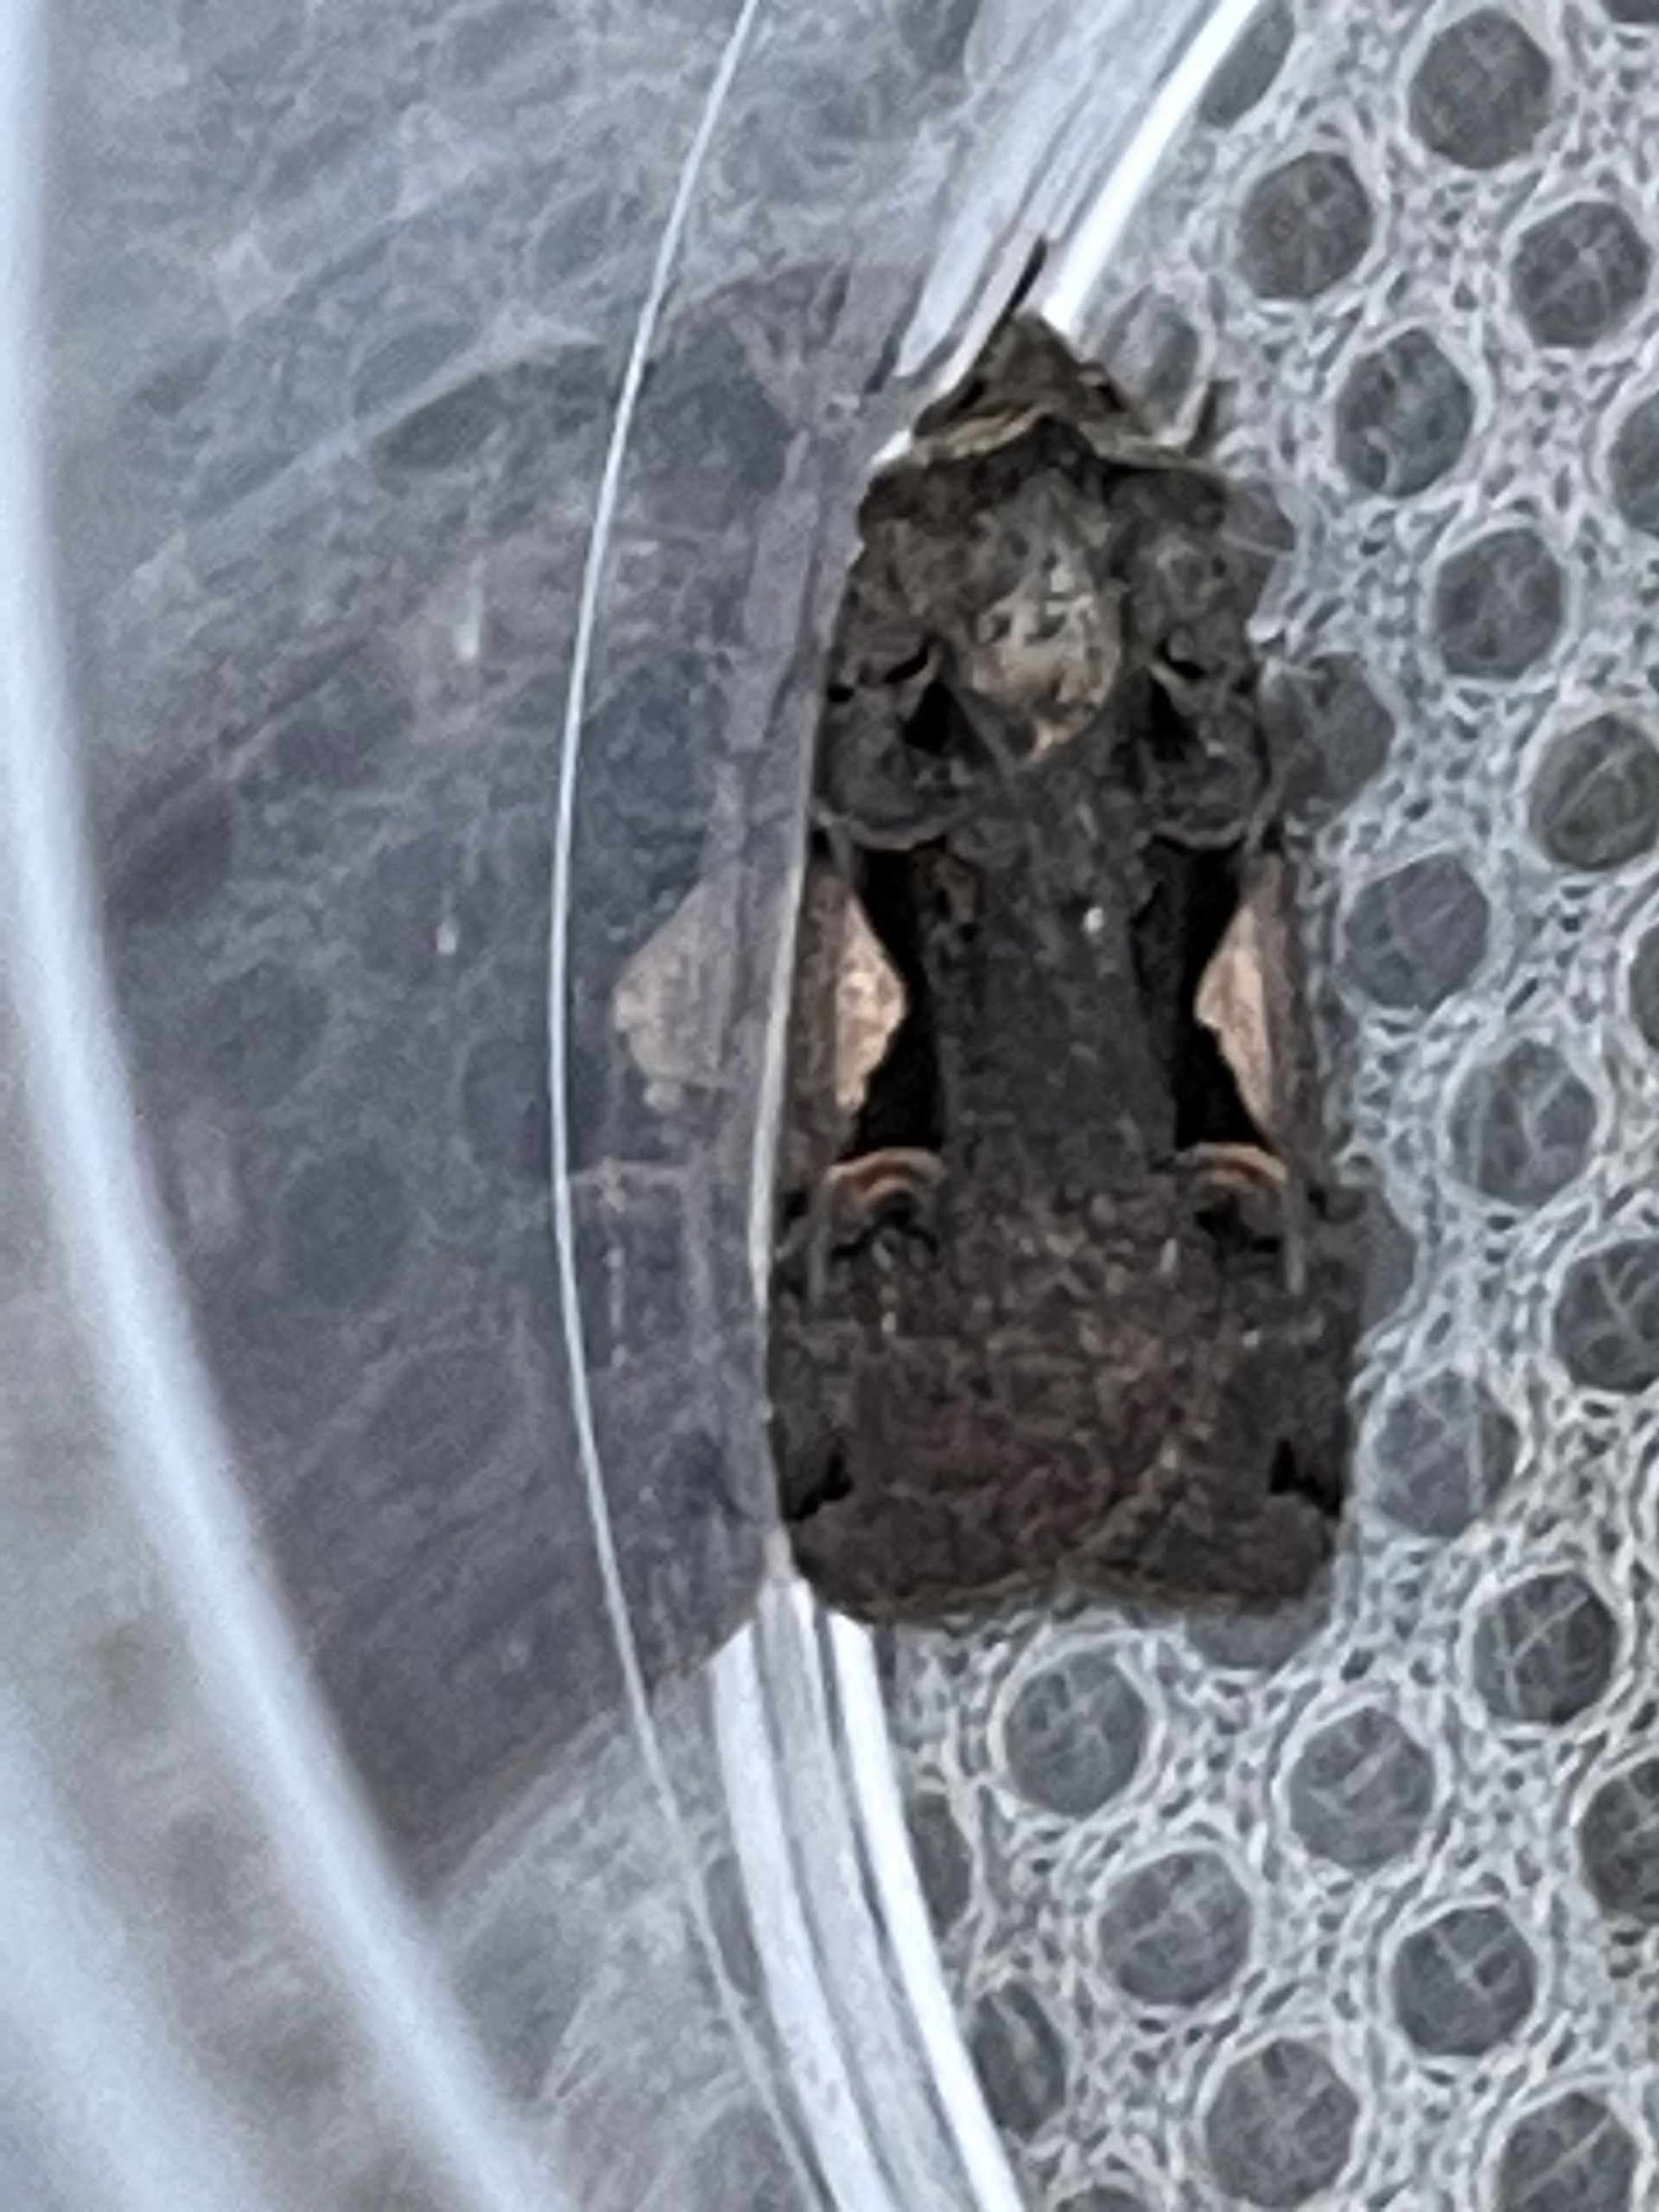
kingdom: Animalia
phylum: Arthropoda
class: Insecta
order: Lepidoptera
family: Noctuidae
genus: Xestia
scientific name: Xestia c-nigrum
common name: Det sorte c
